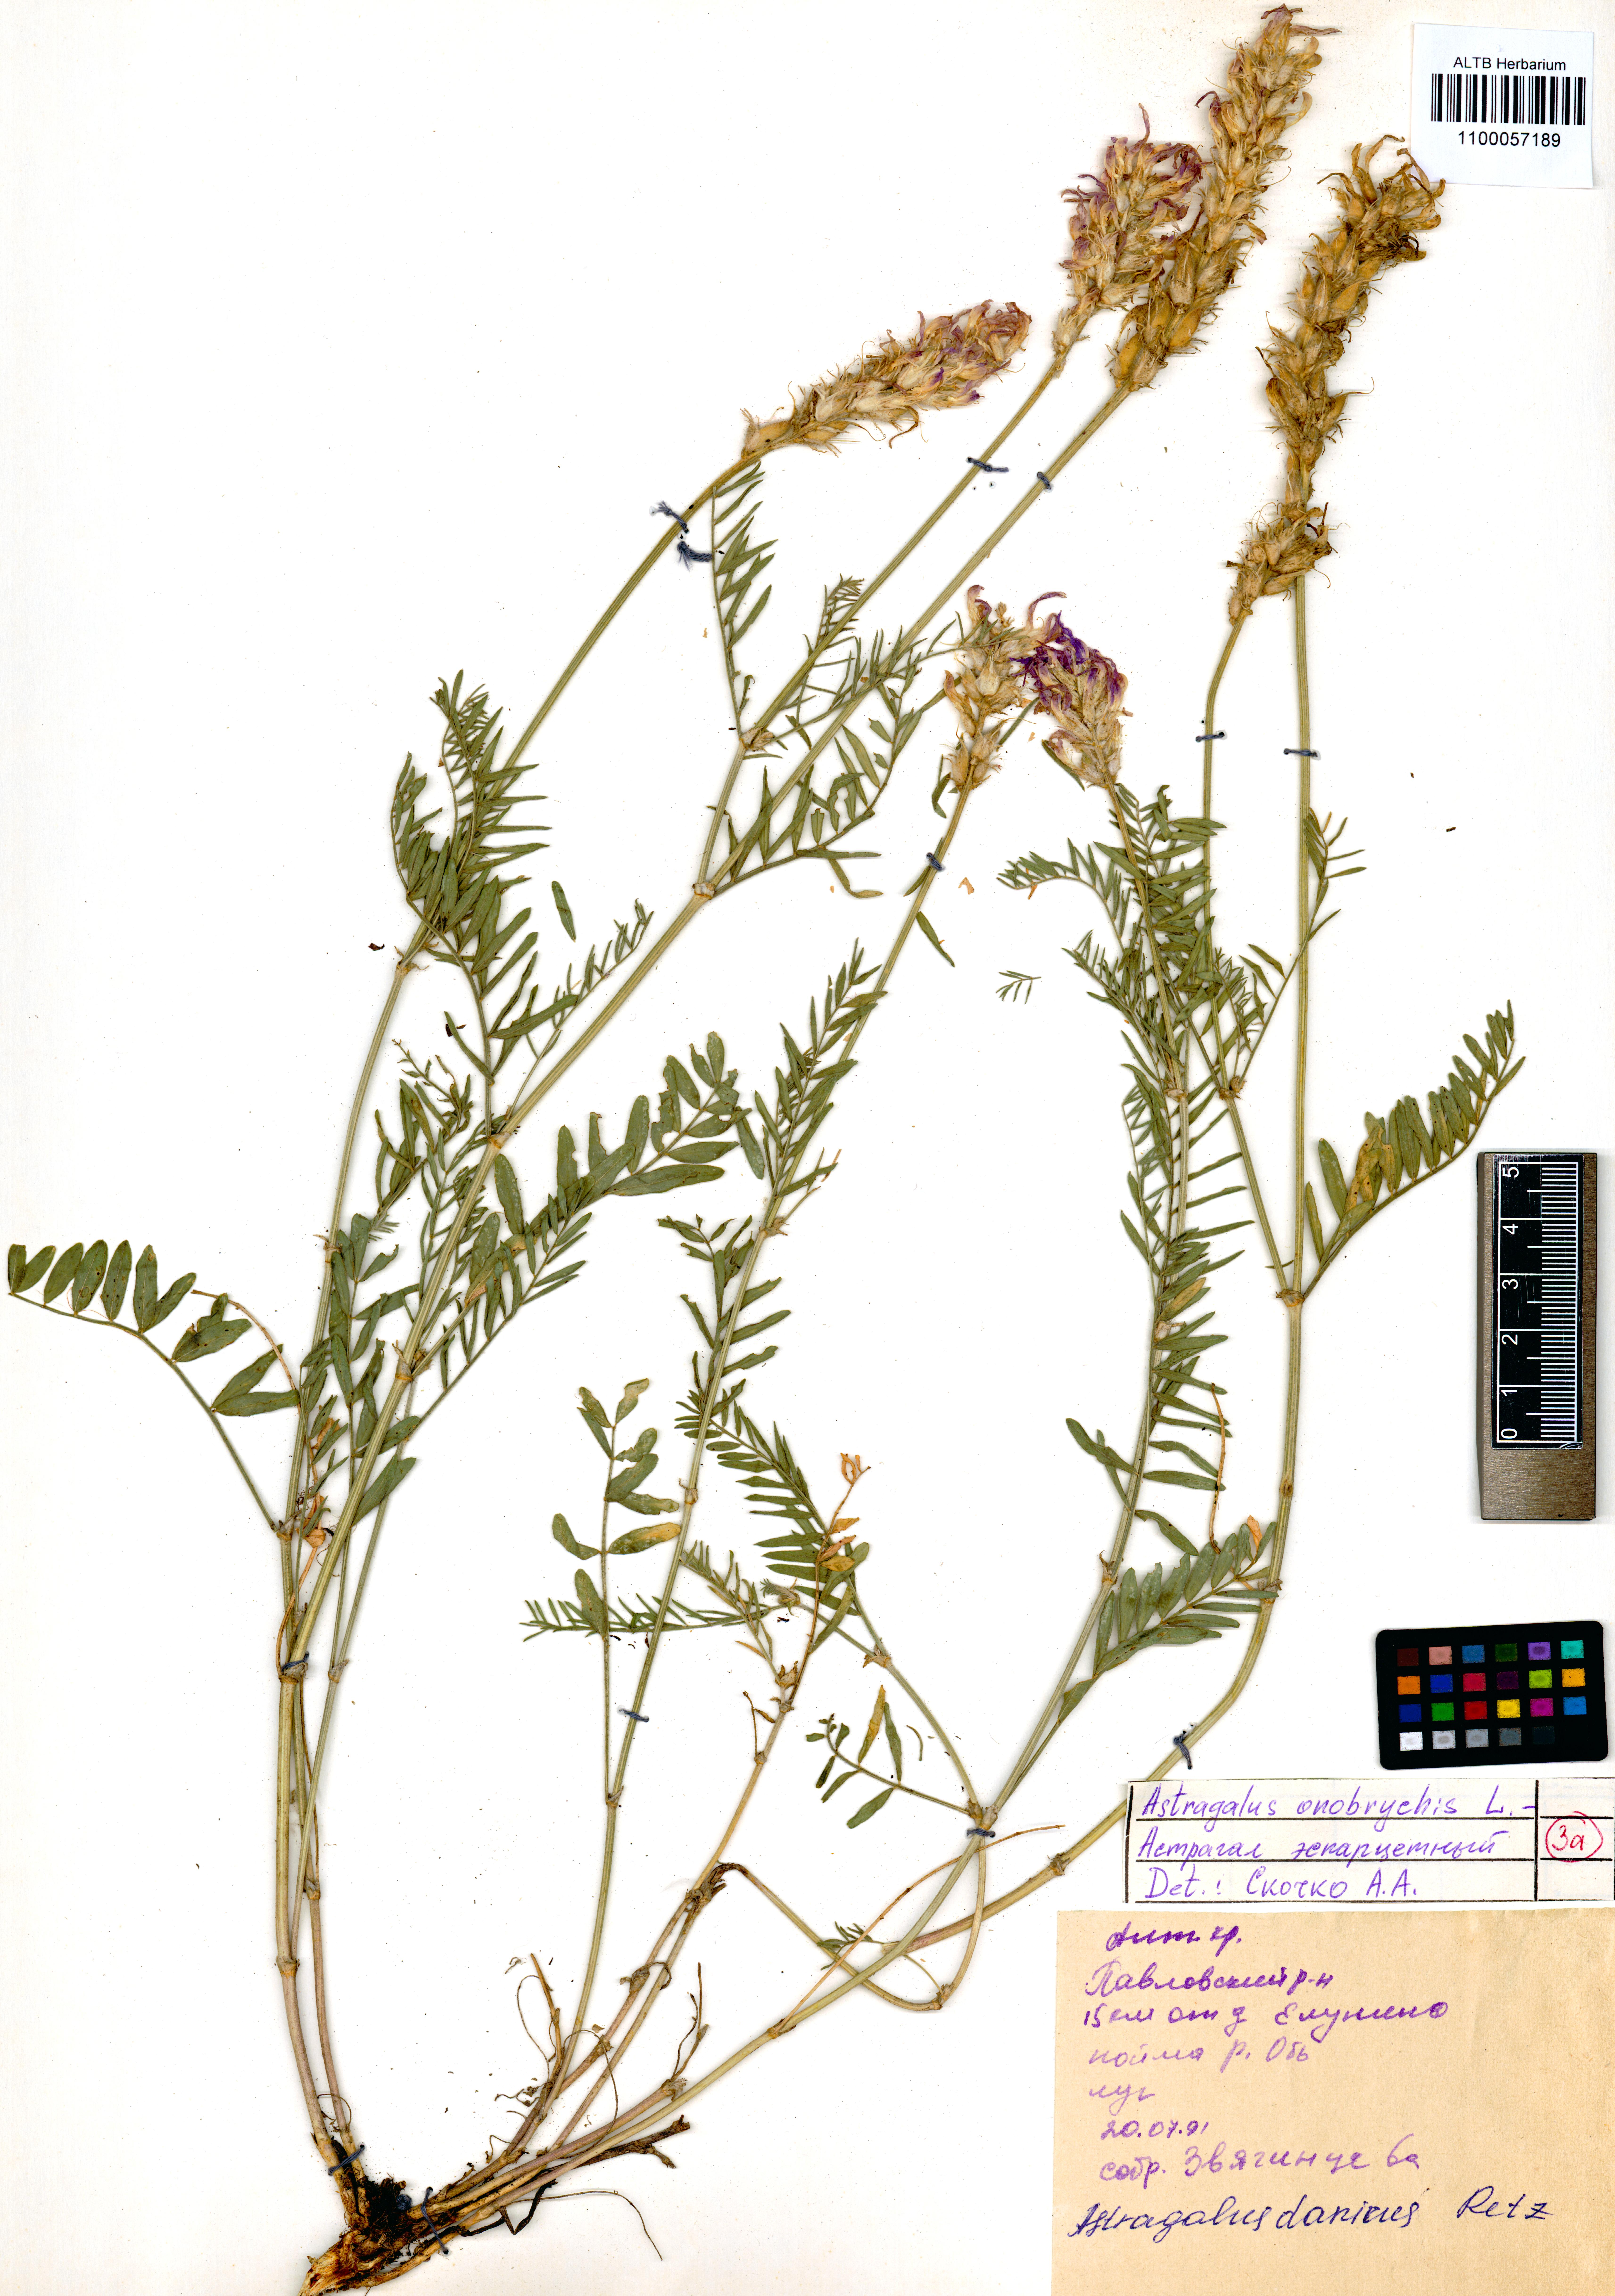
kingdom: Plantae
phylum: Tracheophyta
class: Magnoliopsida
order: Fabales
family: Fabaceae
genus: Astragalus
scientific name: Astragalus onobrychis
